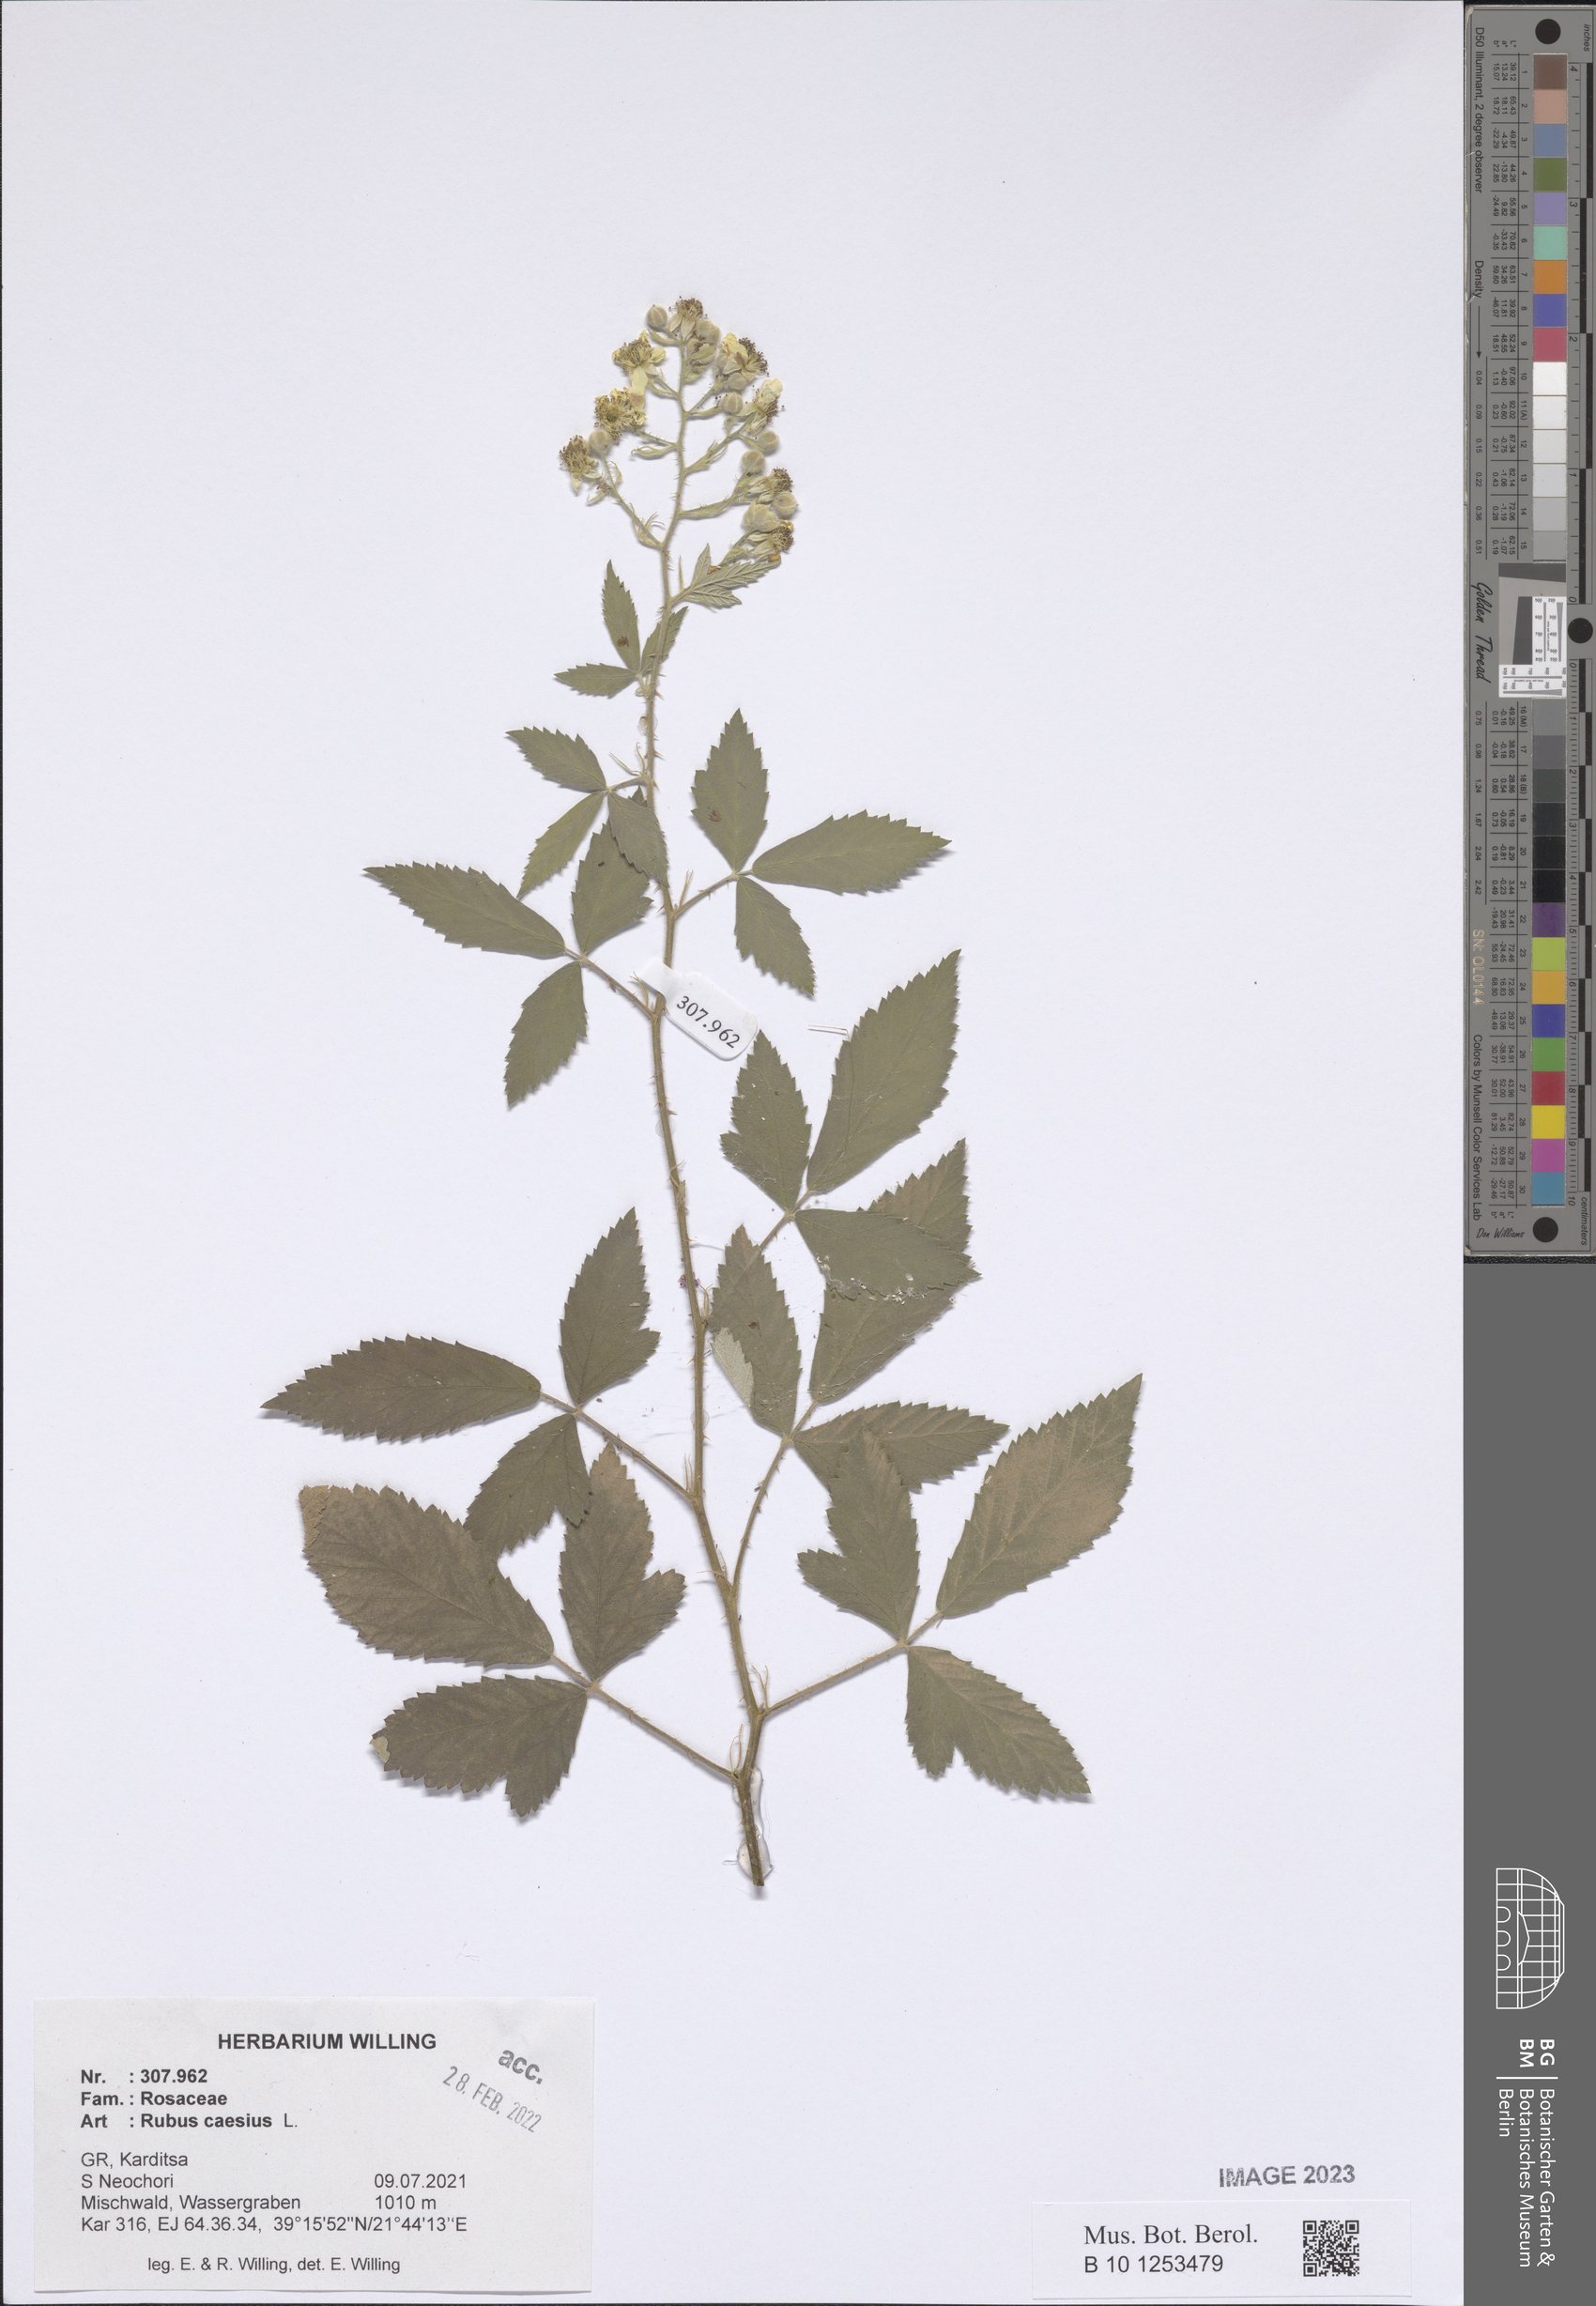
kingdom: Plantae
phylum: Tracheophyta
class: Magnoliopsida
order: Rosales
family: Rosaceae
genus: Rubus
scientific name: Rubus caesius
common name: Dewberry
